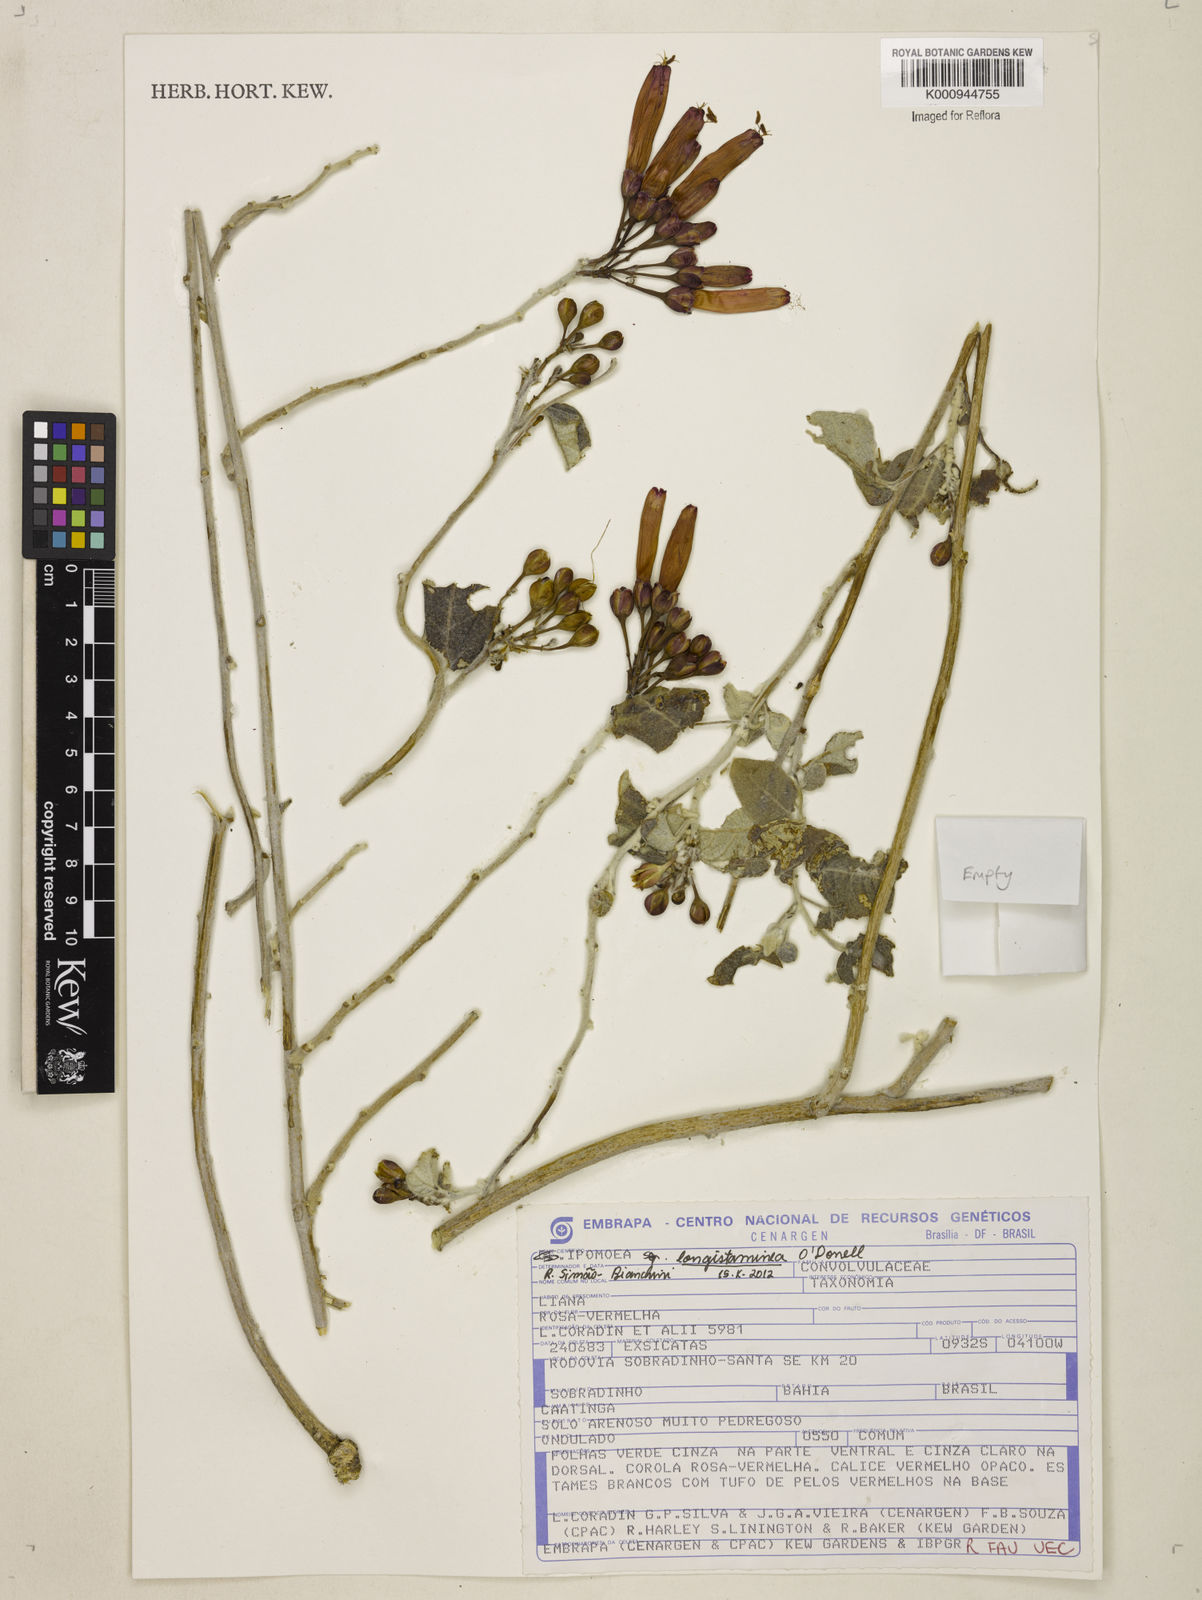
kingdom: Plantae
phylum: Tracheophyta
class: Magnoliopsida
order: Solanales
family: Convolvulaceae
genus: Ipomoea
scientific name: Ipomoea longistaminea
